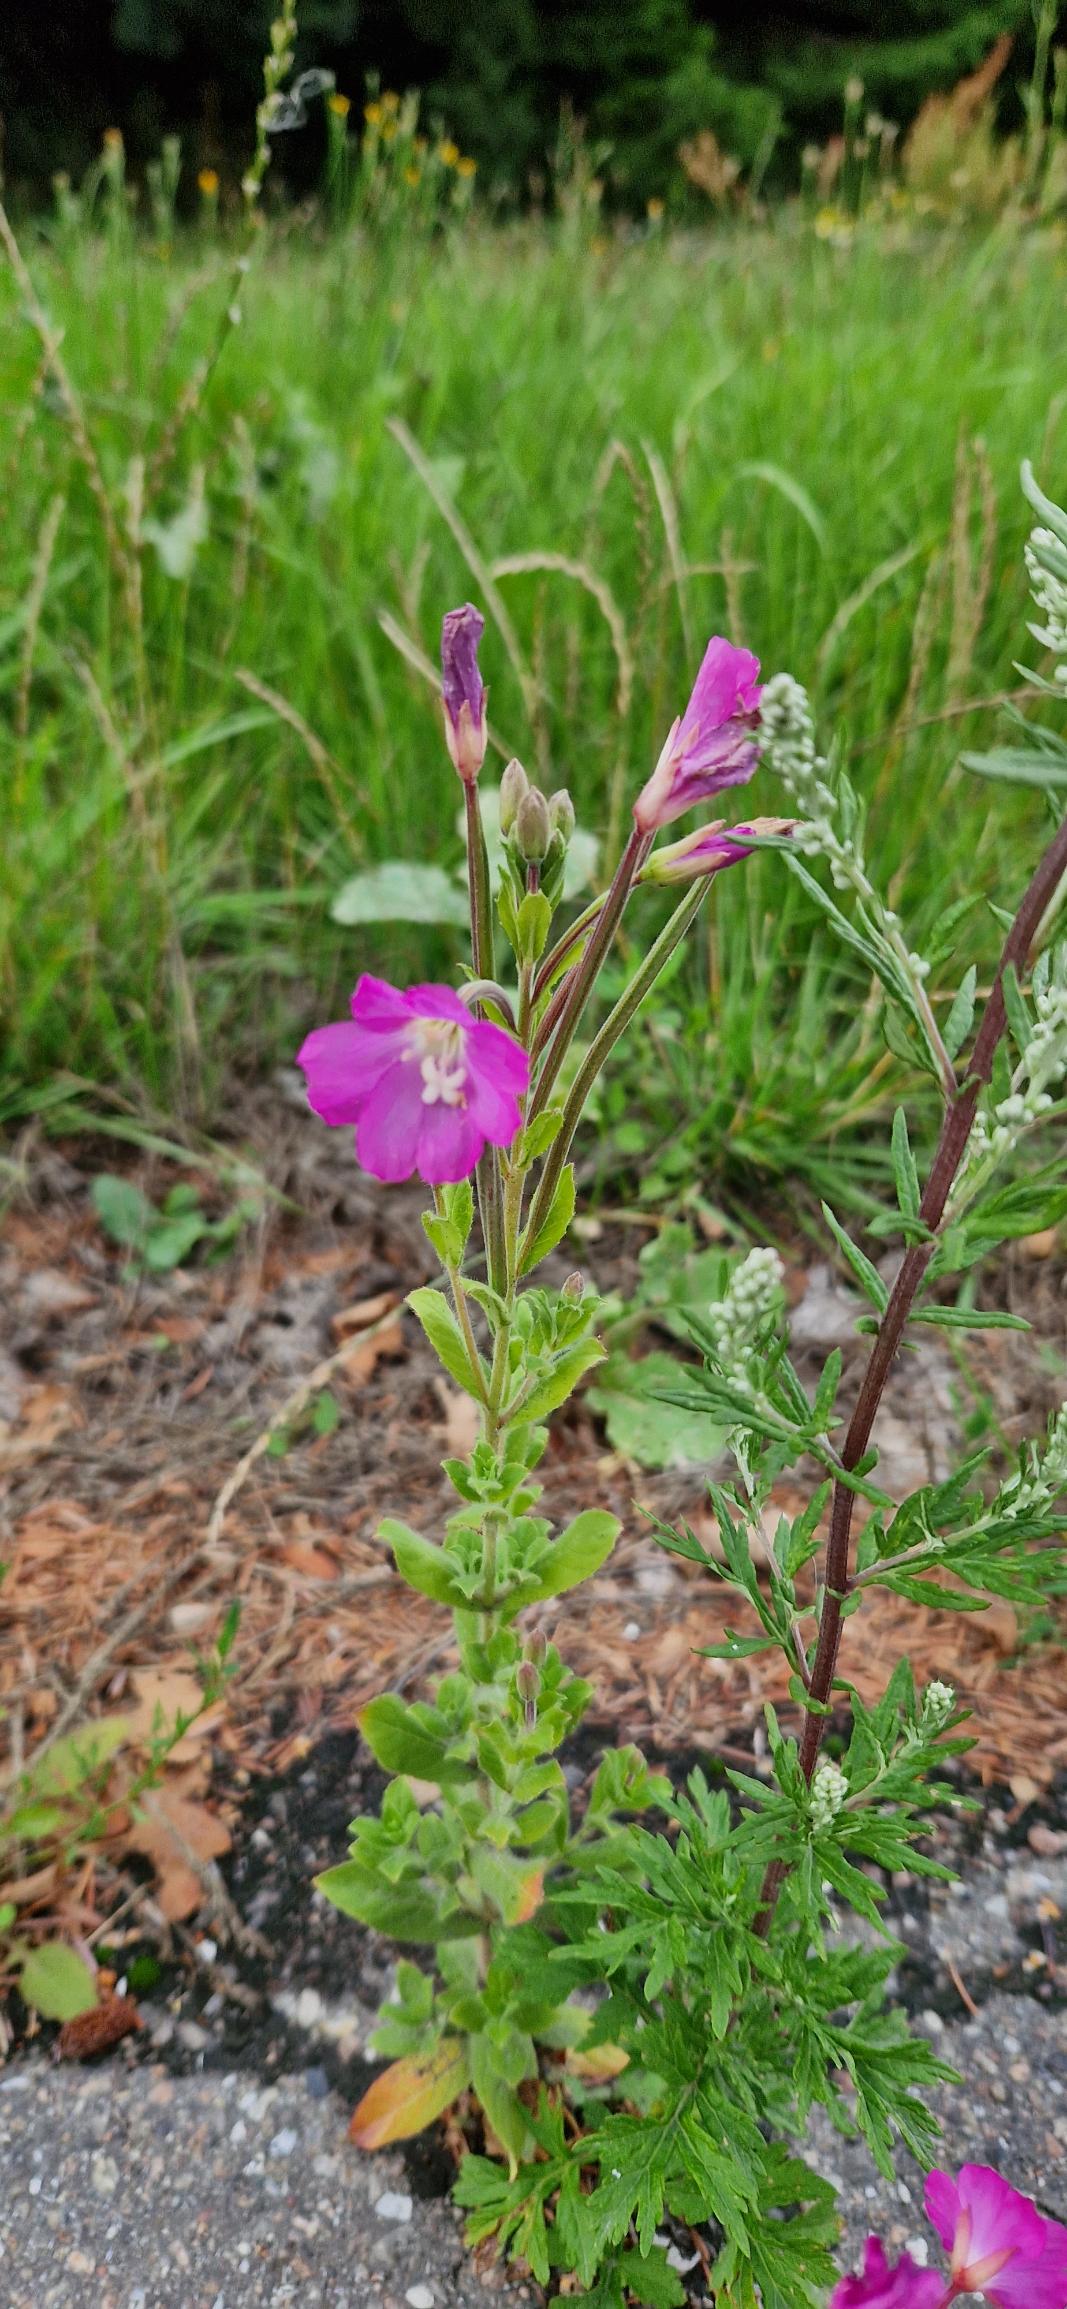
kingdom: Plantae
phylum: Tracheophyta
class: Magnoliopsida
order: Myrtales
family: Onagraceae
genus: Epilobium
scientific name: Epilobium hirsutum
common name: Lådden dueurt
